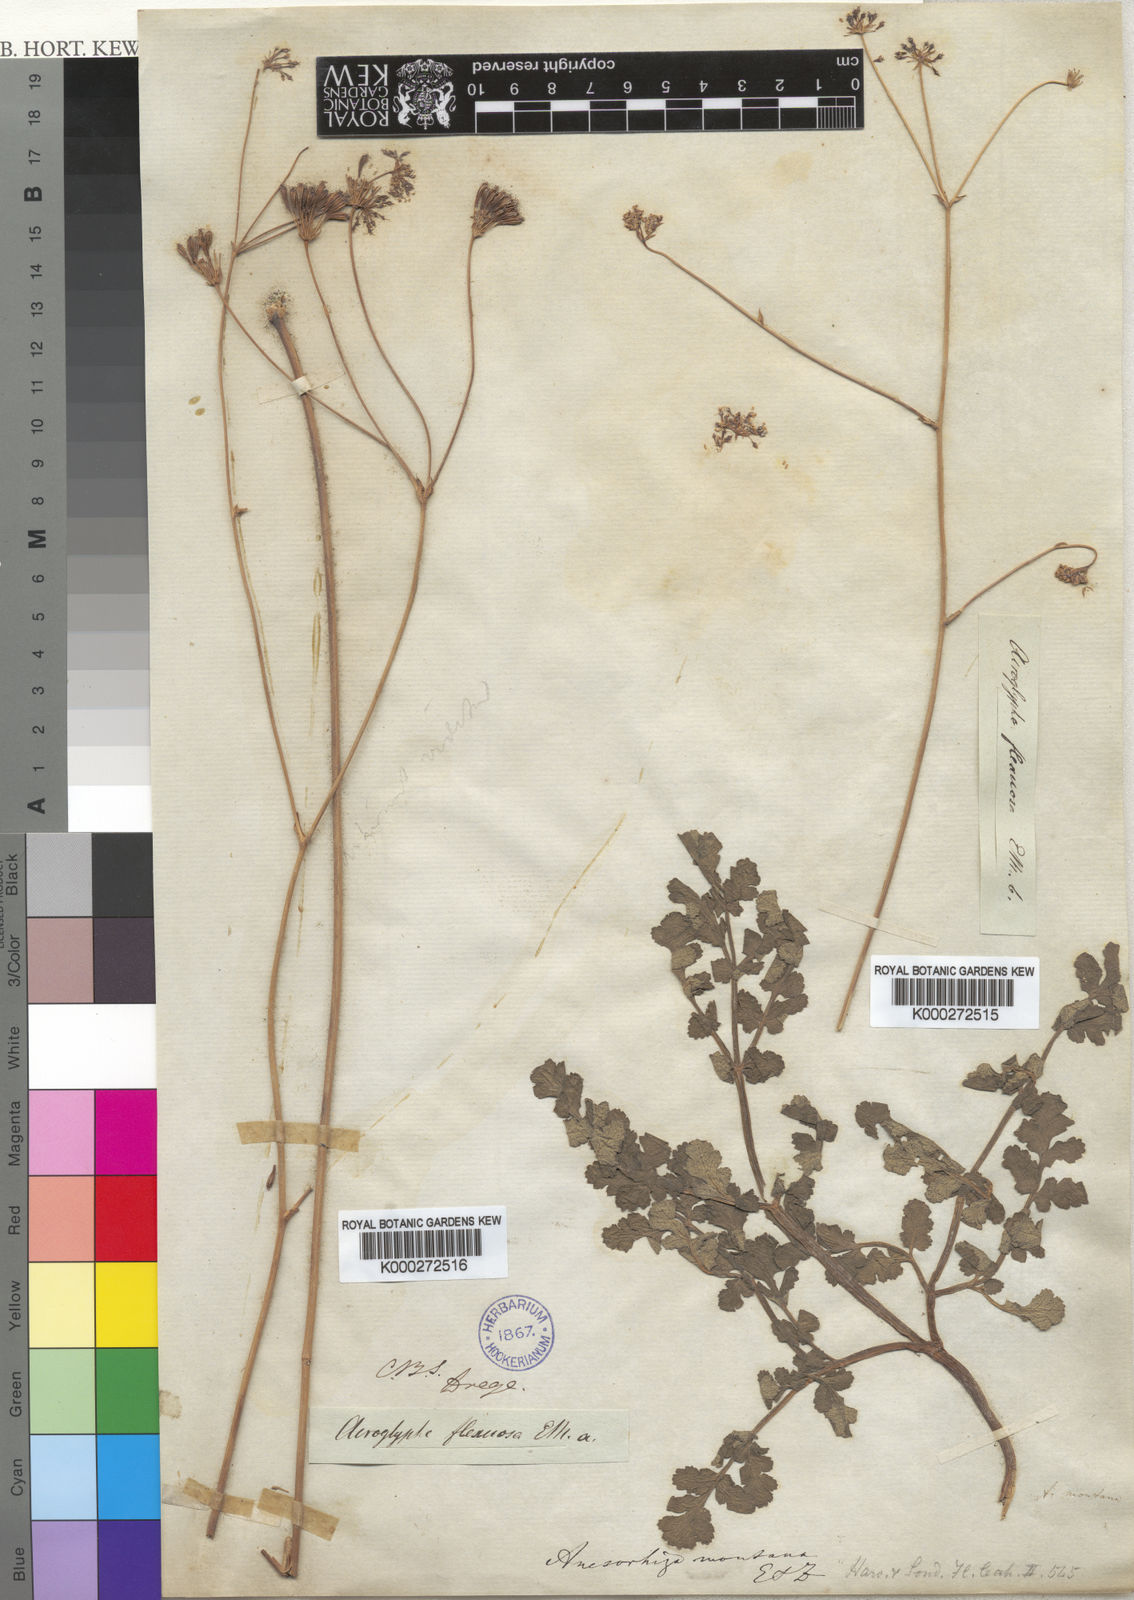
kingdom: Plantae
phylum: Tracheophyta
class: Magnoliopsida
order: Apiales
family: Apiaceae
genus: Annesorhiza
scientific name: Annesorhiza nuda
